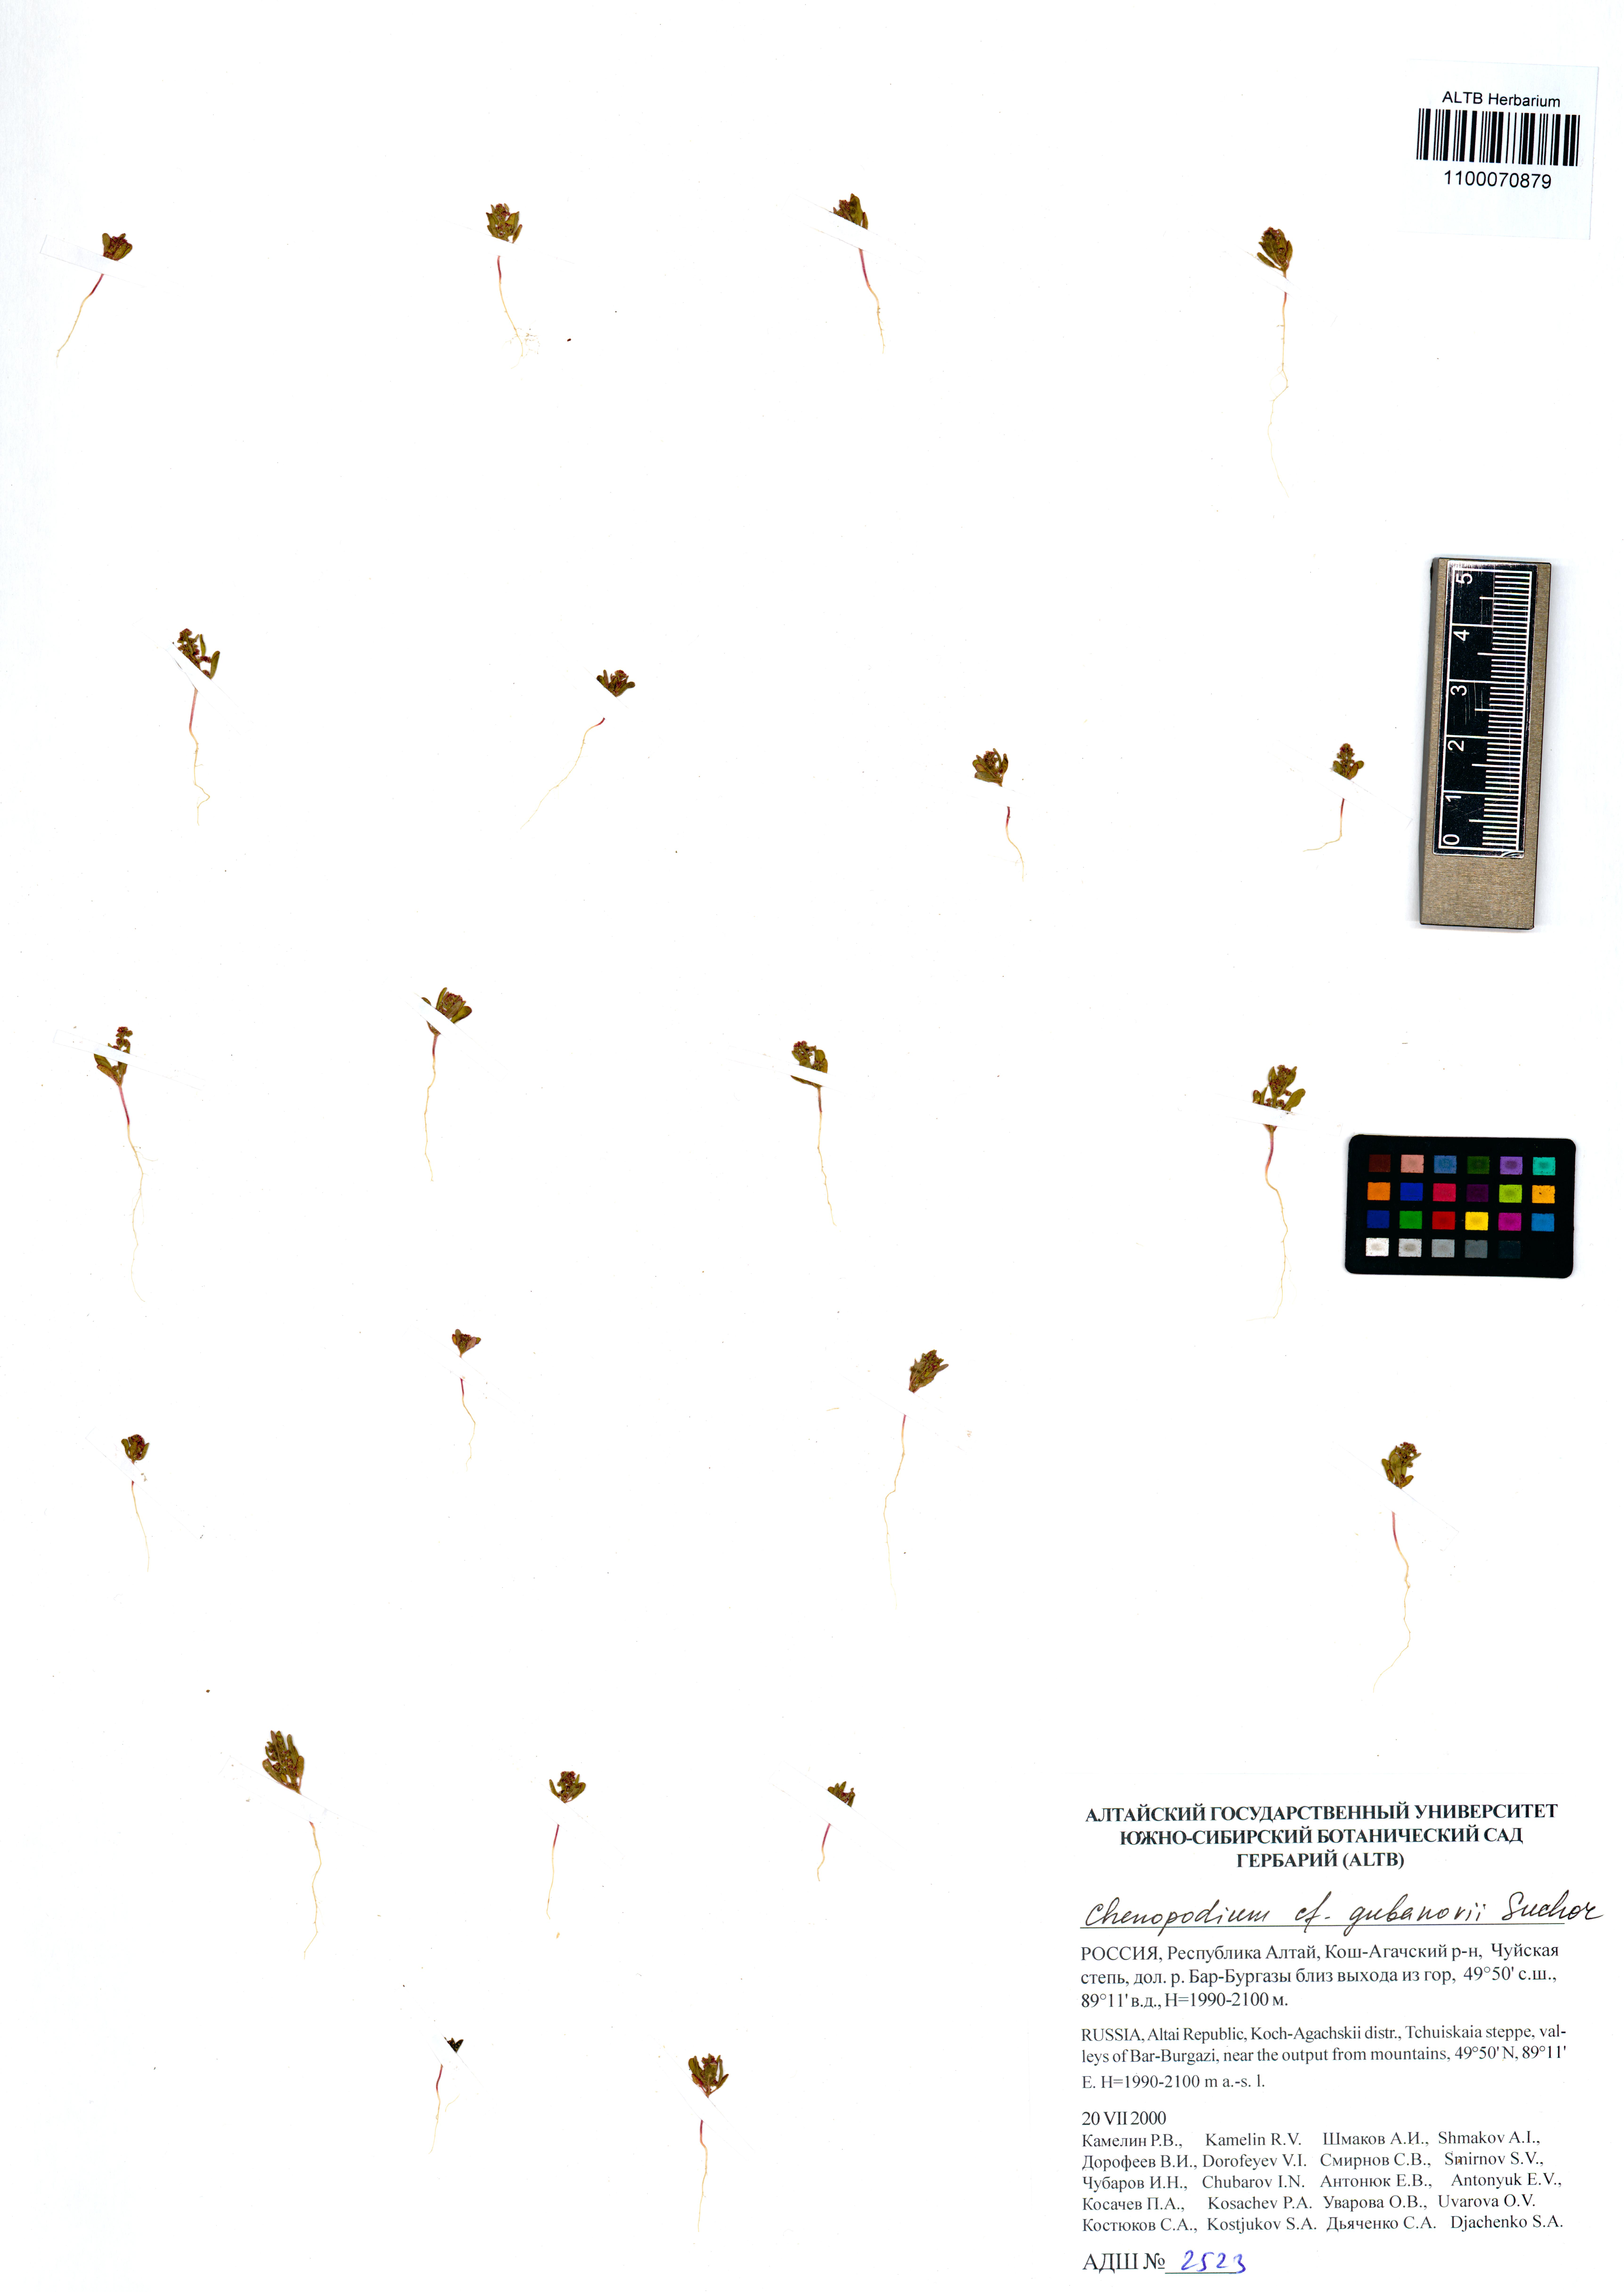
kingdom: Plantae
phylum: Tracheophyta
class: Magnoliopsida
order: Caryophyllales
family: Amaranthaceae
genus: Oxybasis
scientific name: Oxybasis gubanovii
